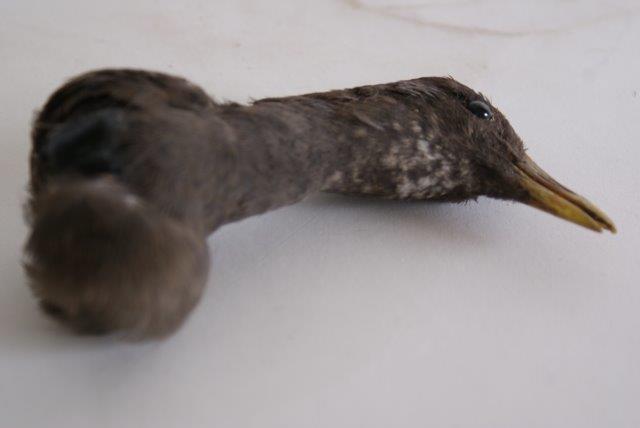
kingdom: Animalia
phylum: Chordata
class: Aves
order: Gruiformes
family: Rallidae
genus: Gallinula
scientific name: Gallinula chloropus
